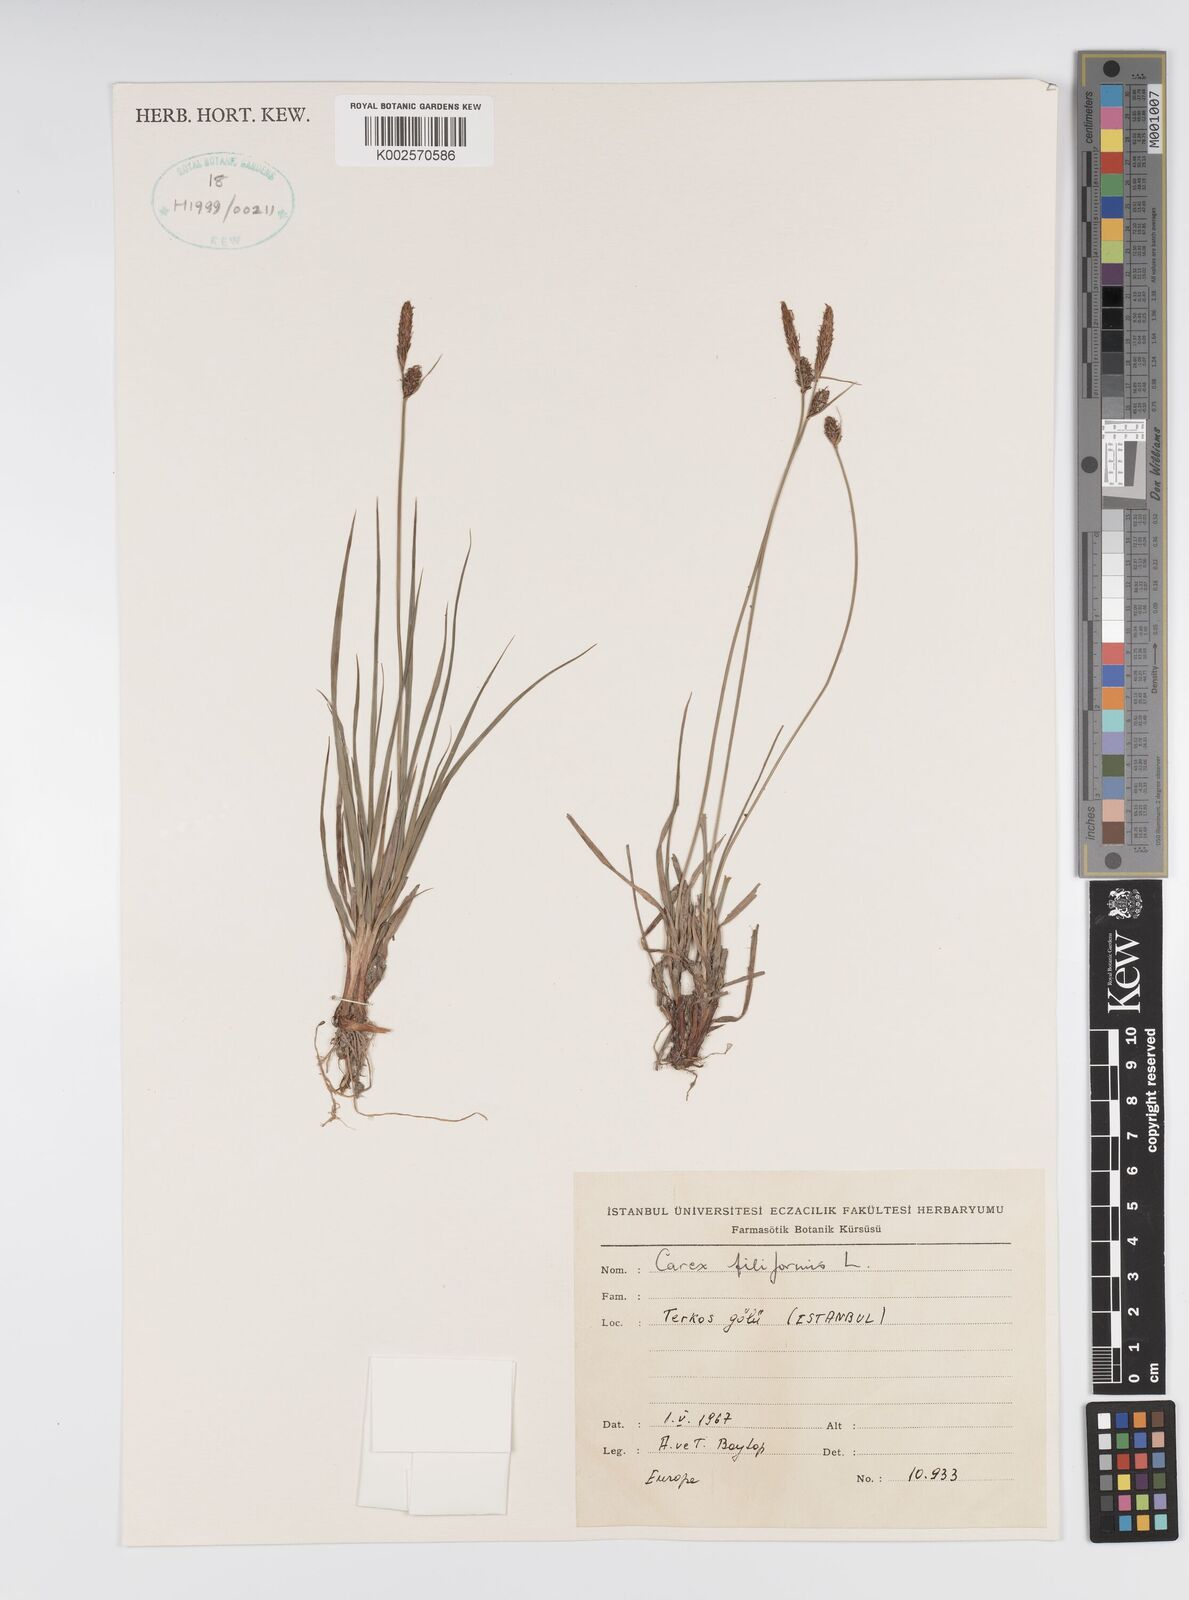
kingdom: Plantae
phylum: Tracheophyta
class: Liliopsida
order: Poales
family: Cyperaceae
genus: Carex
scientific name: Carex montana
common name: Soft-leaved sedge
